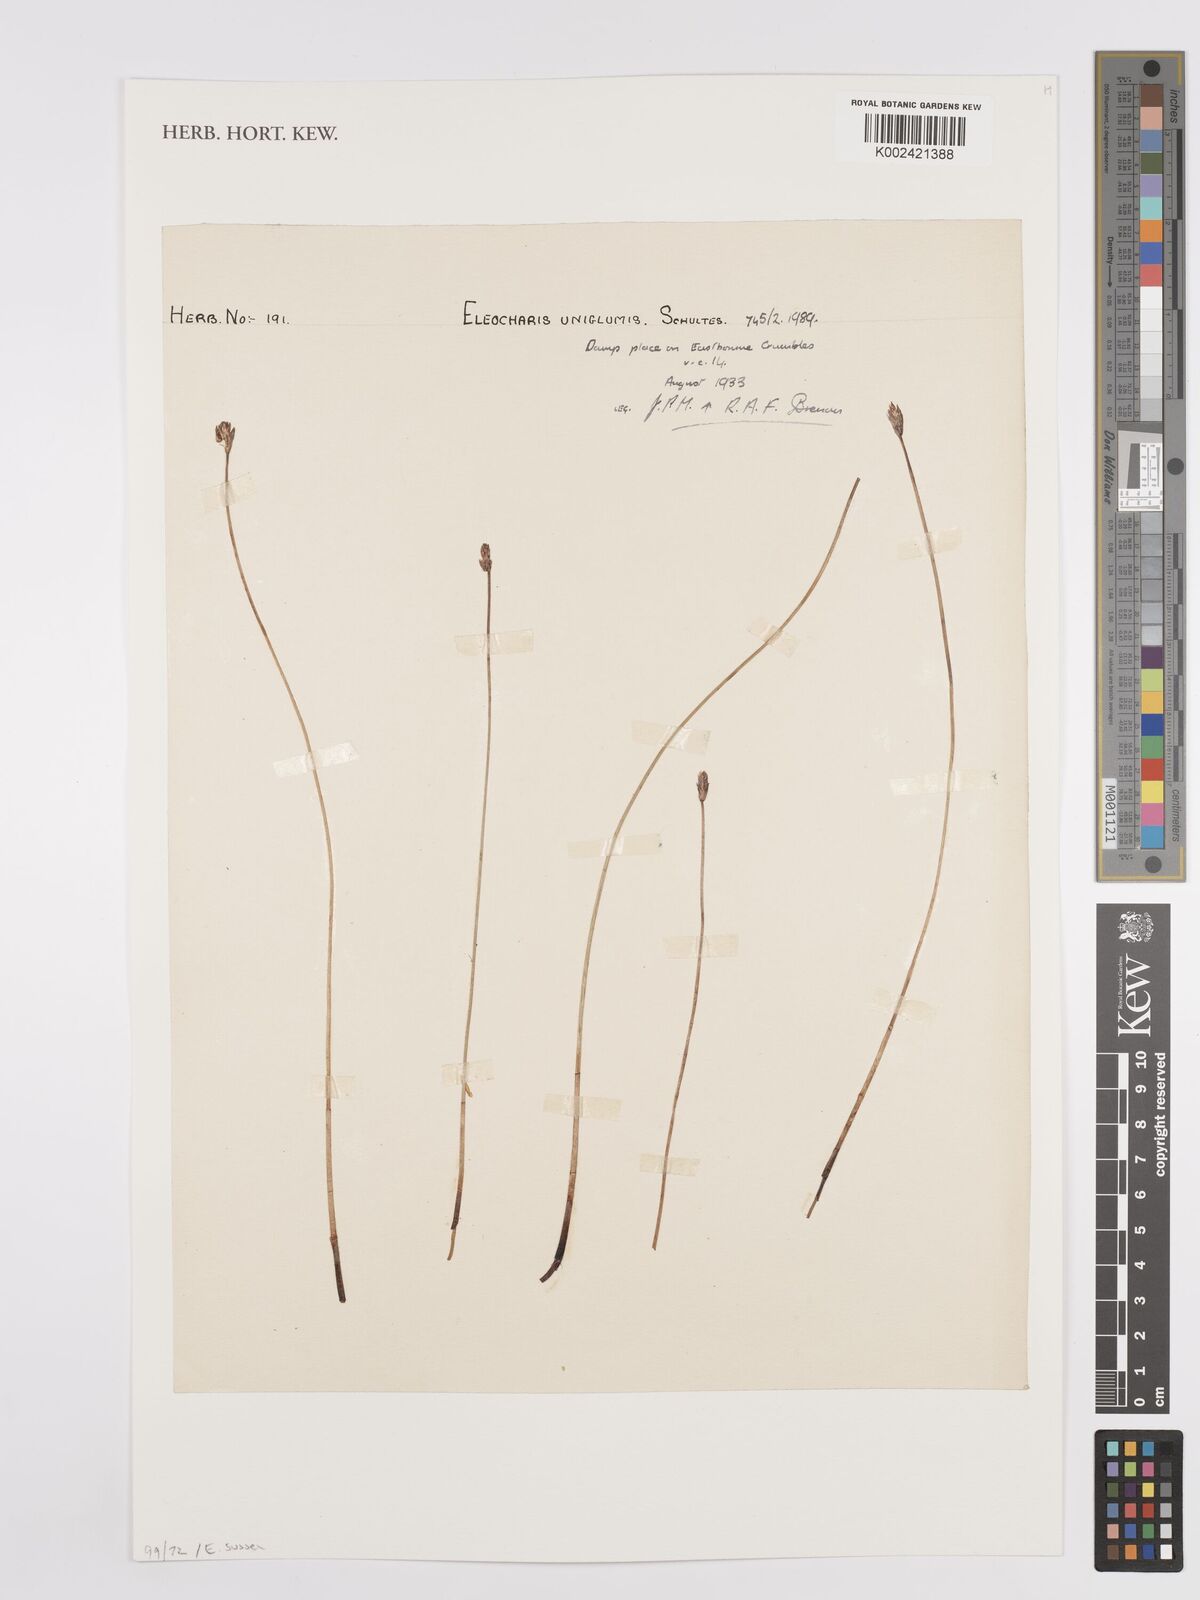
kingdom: Plantae
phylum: Tracheophyta
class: Liliopsida
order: Poales
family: Cyperaceae
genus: Eleocharis
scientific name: Eleocharis uniglumis
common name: Slender spike-rush
